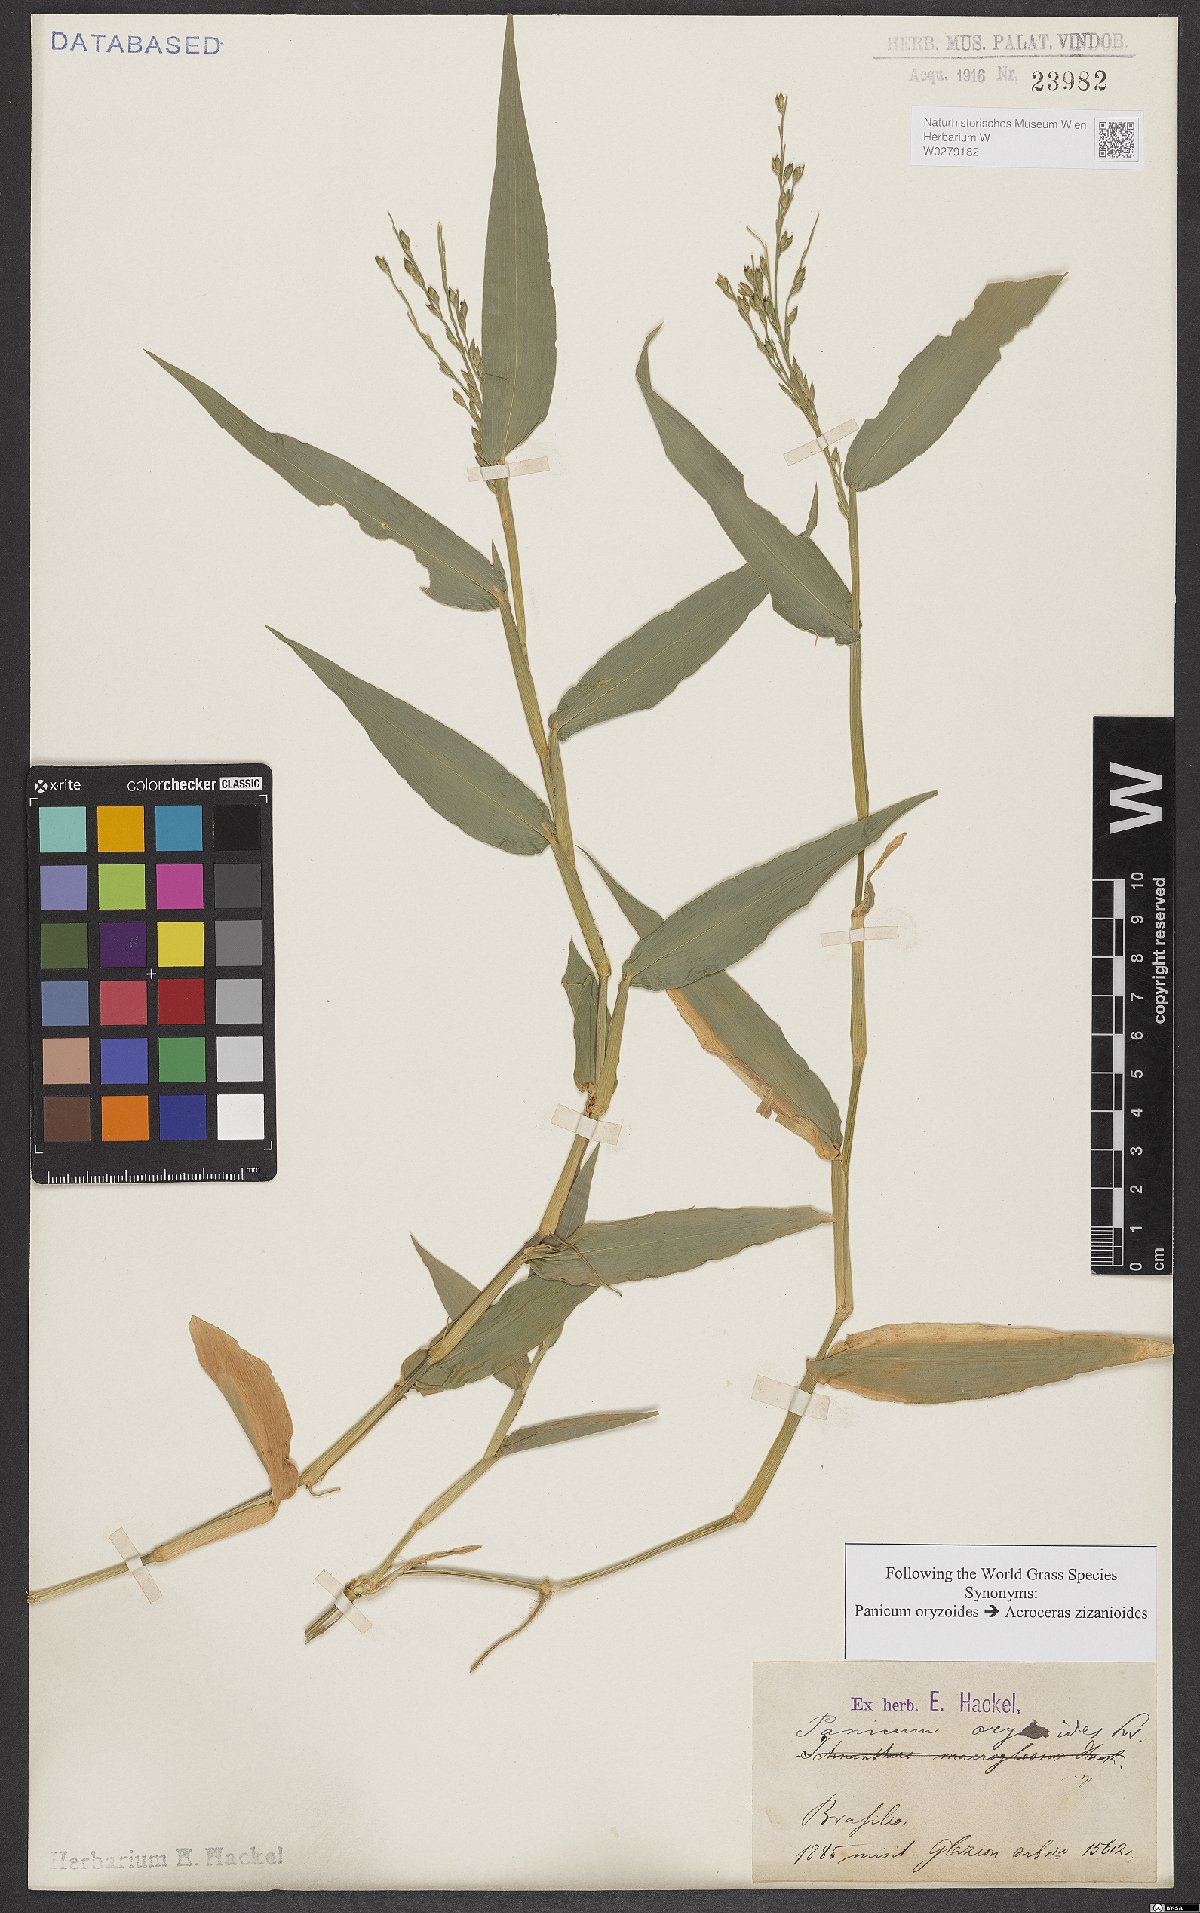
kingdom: Plantae
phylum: Tracheophyta
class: Liliopsida
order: Poales
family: Poaceae
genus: Acroceras
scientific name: Acroceras zizanioides
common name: Oat grass
